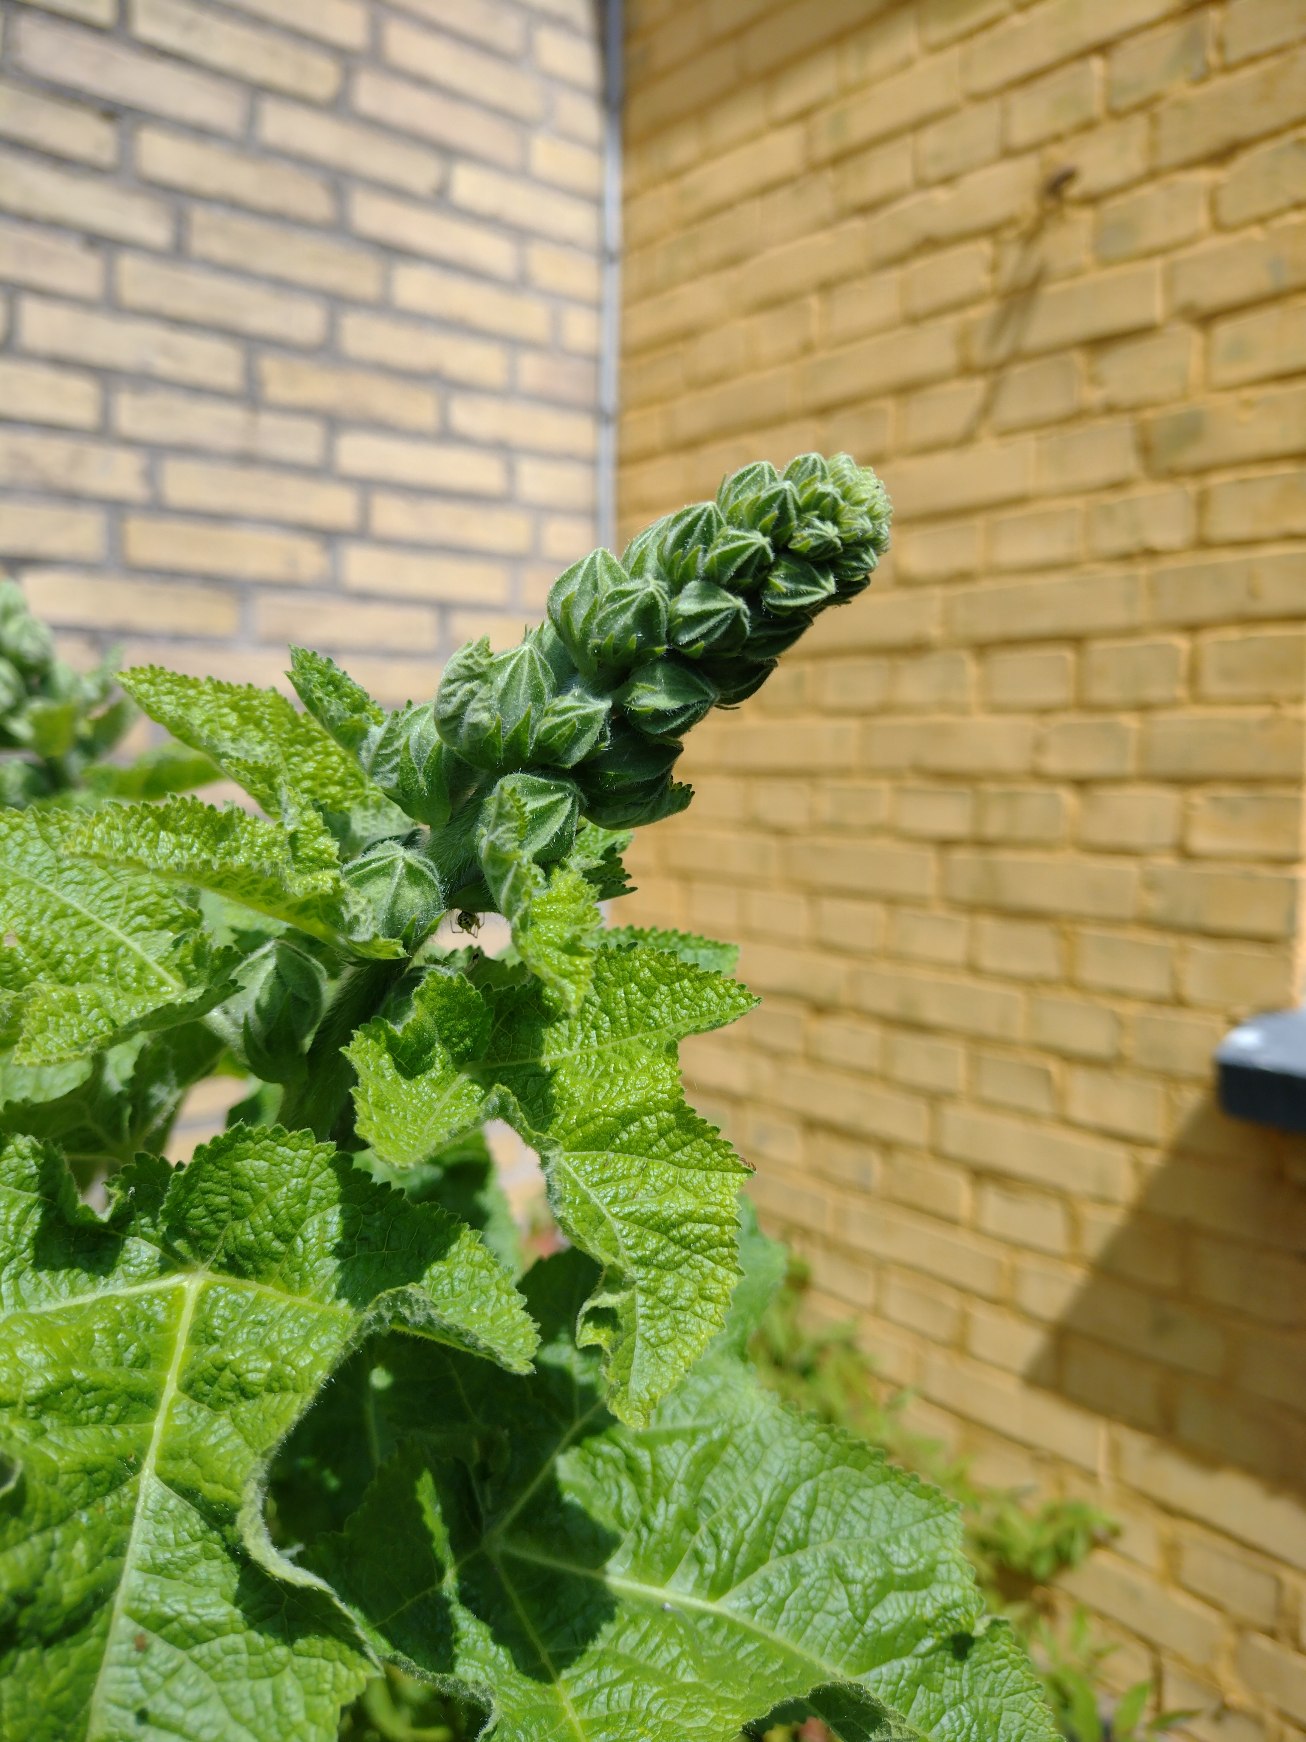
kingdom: Plantae
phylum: Tracheophyta
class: Magnoliopsida
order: Malvales
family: Malvaceae
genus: Alcea
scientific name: Alcea rosea
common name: Have-stokrose
